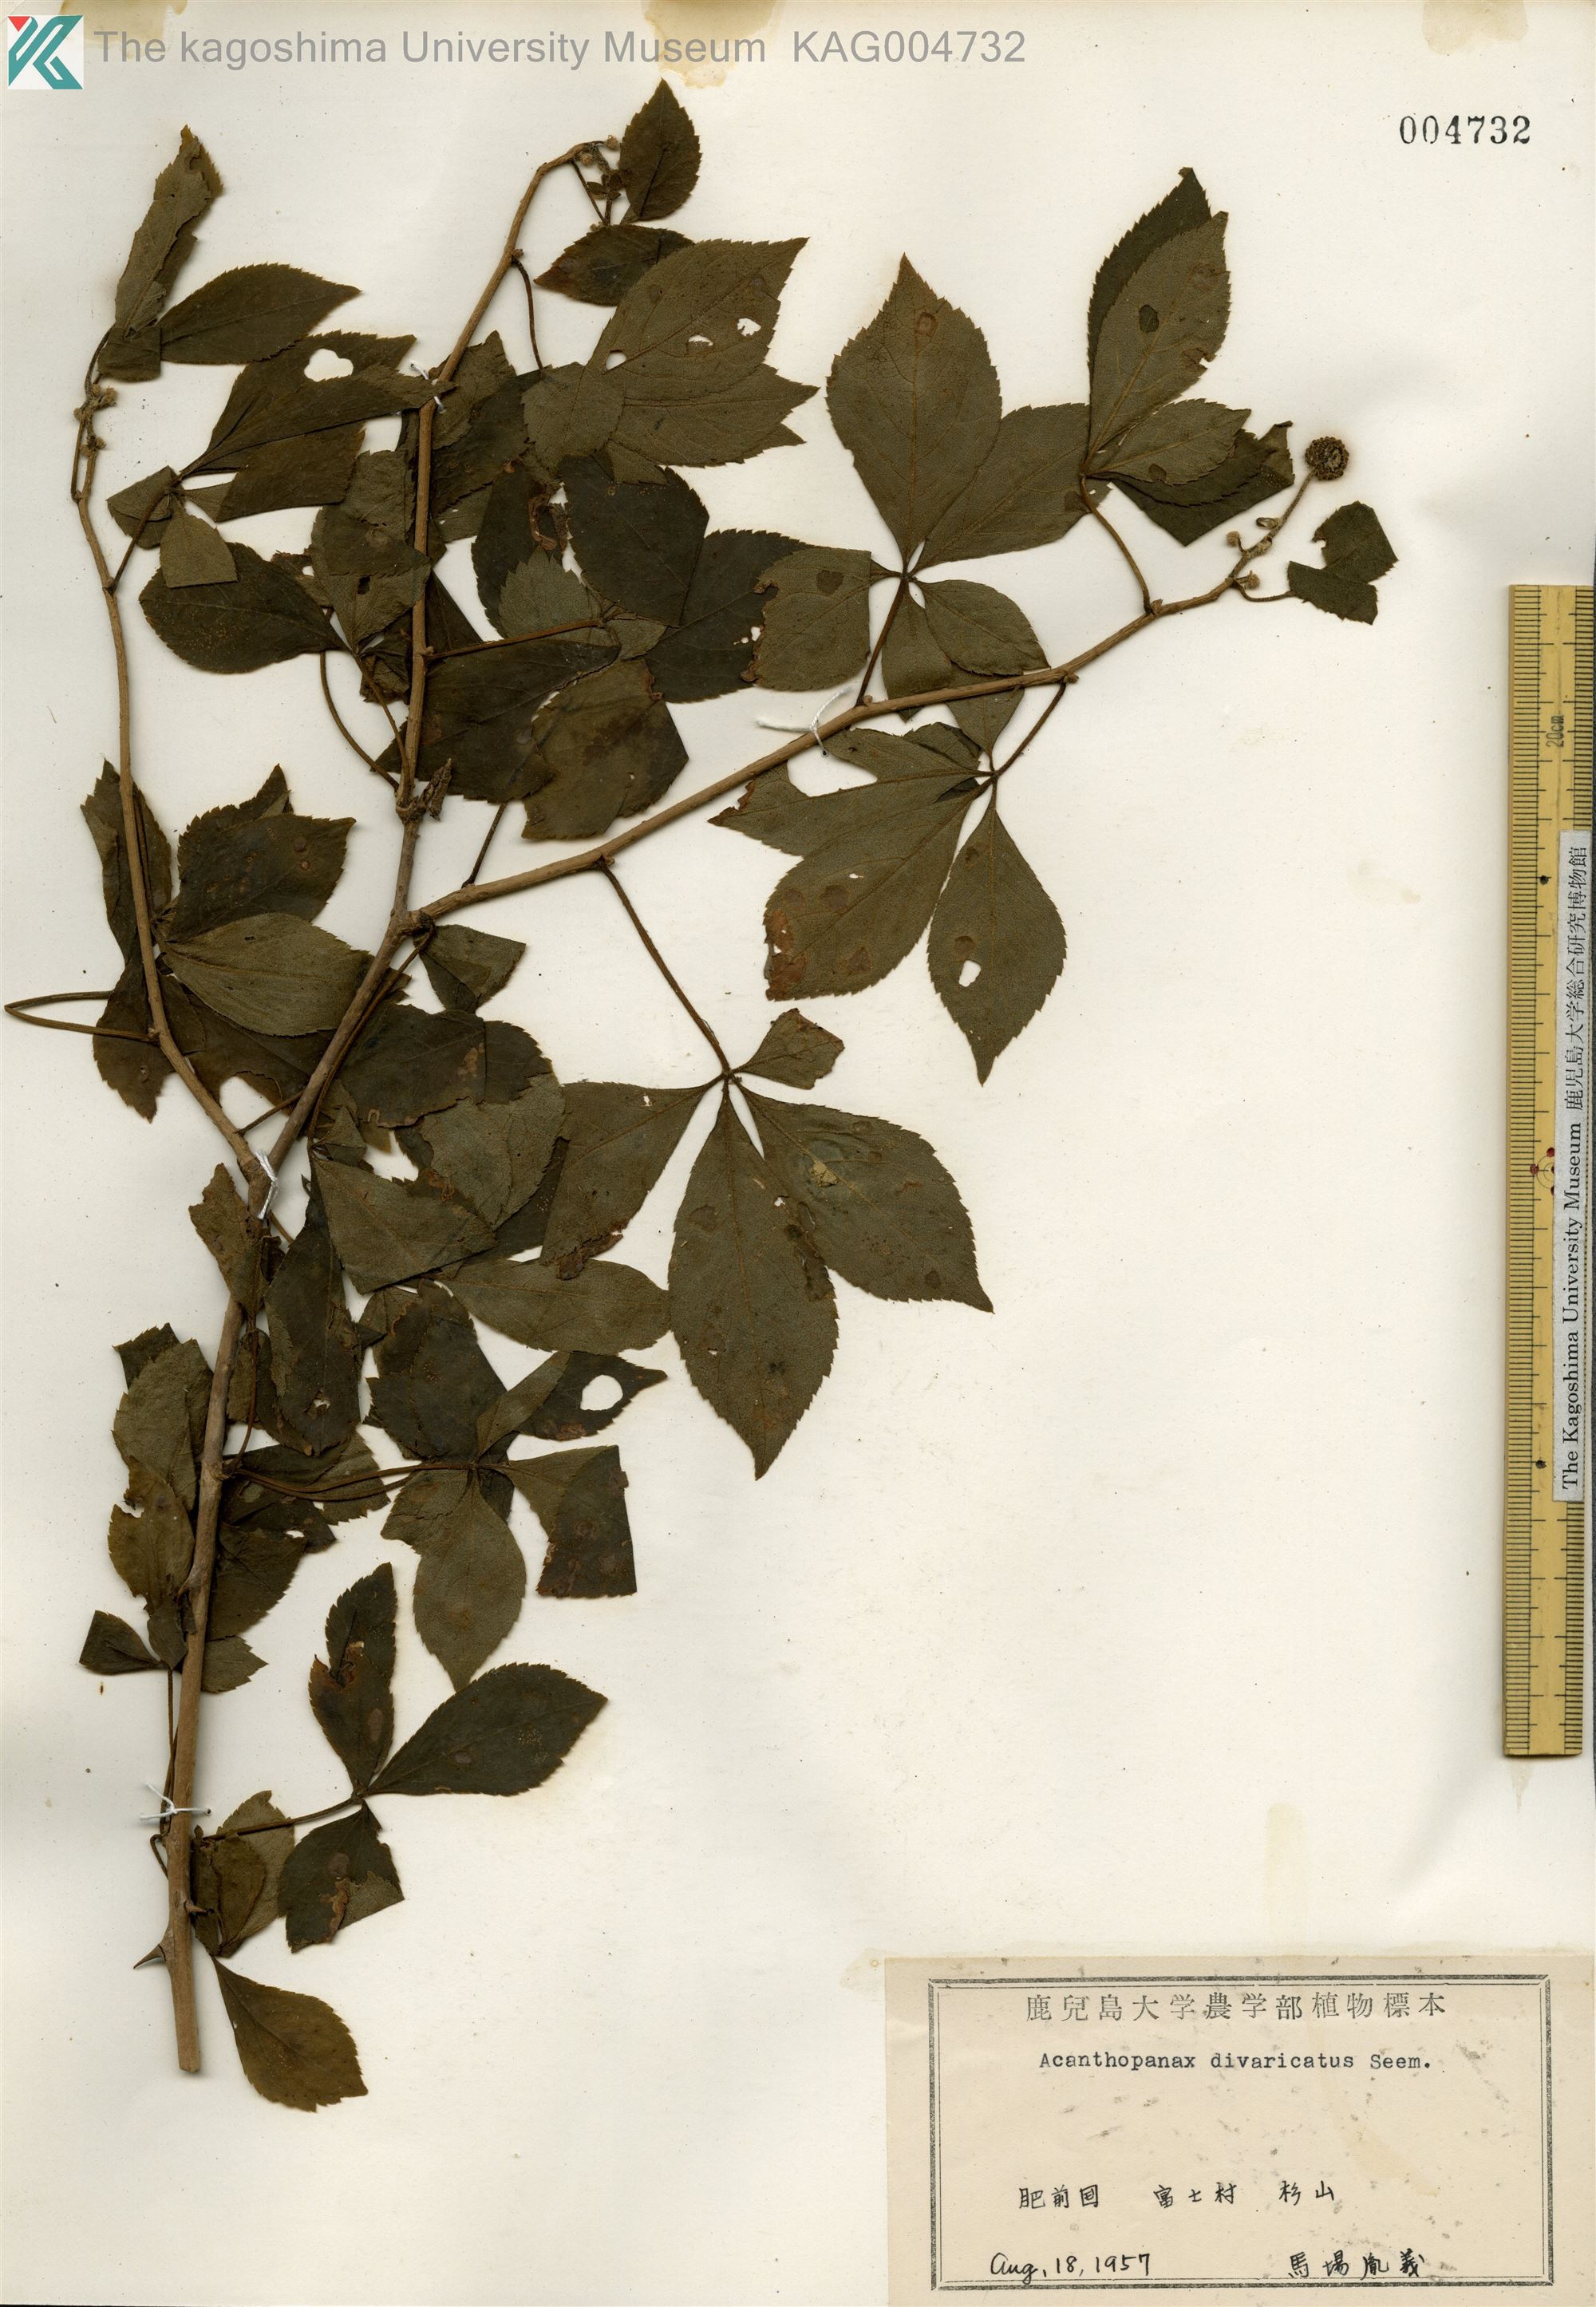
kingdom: Plantae
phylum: Tracheophyta
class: Magnoliopsida
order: Apiales
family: Araliaceae
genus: Eleutherococcus
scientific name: Eleutherococcus divaricatus
